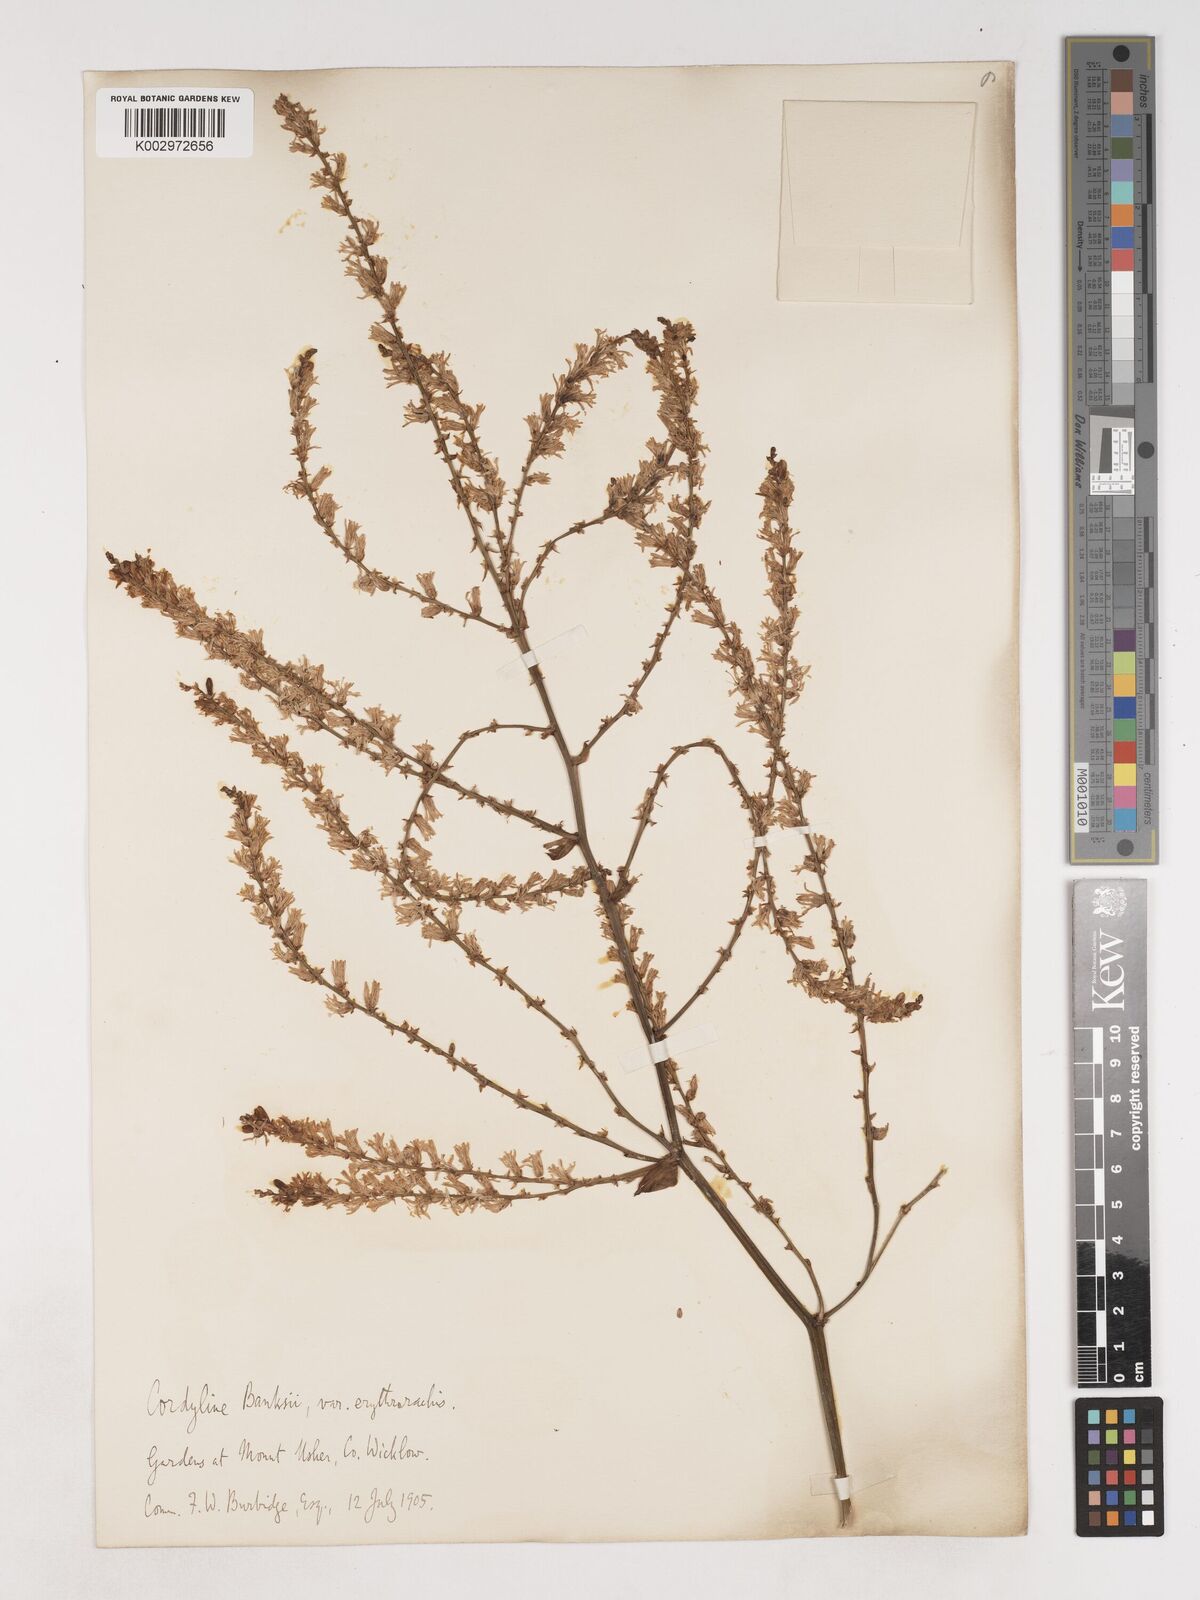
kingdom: Plantae
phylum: Tracheophyta
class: Liliopsida
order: Asparagales
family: Asparagaceae
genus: Cordyline
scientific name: Cordyline banksii
